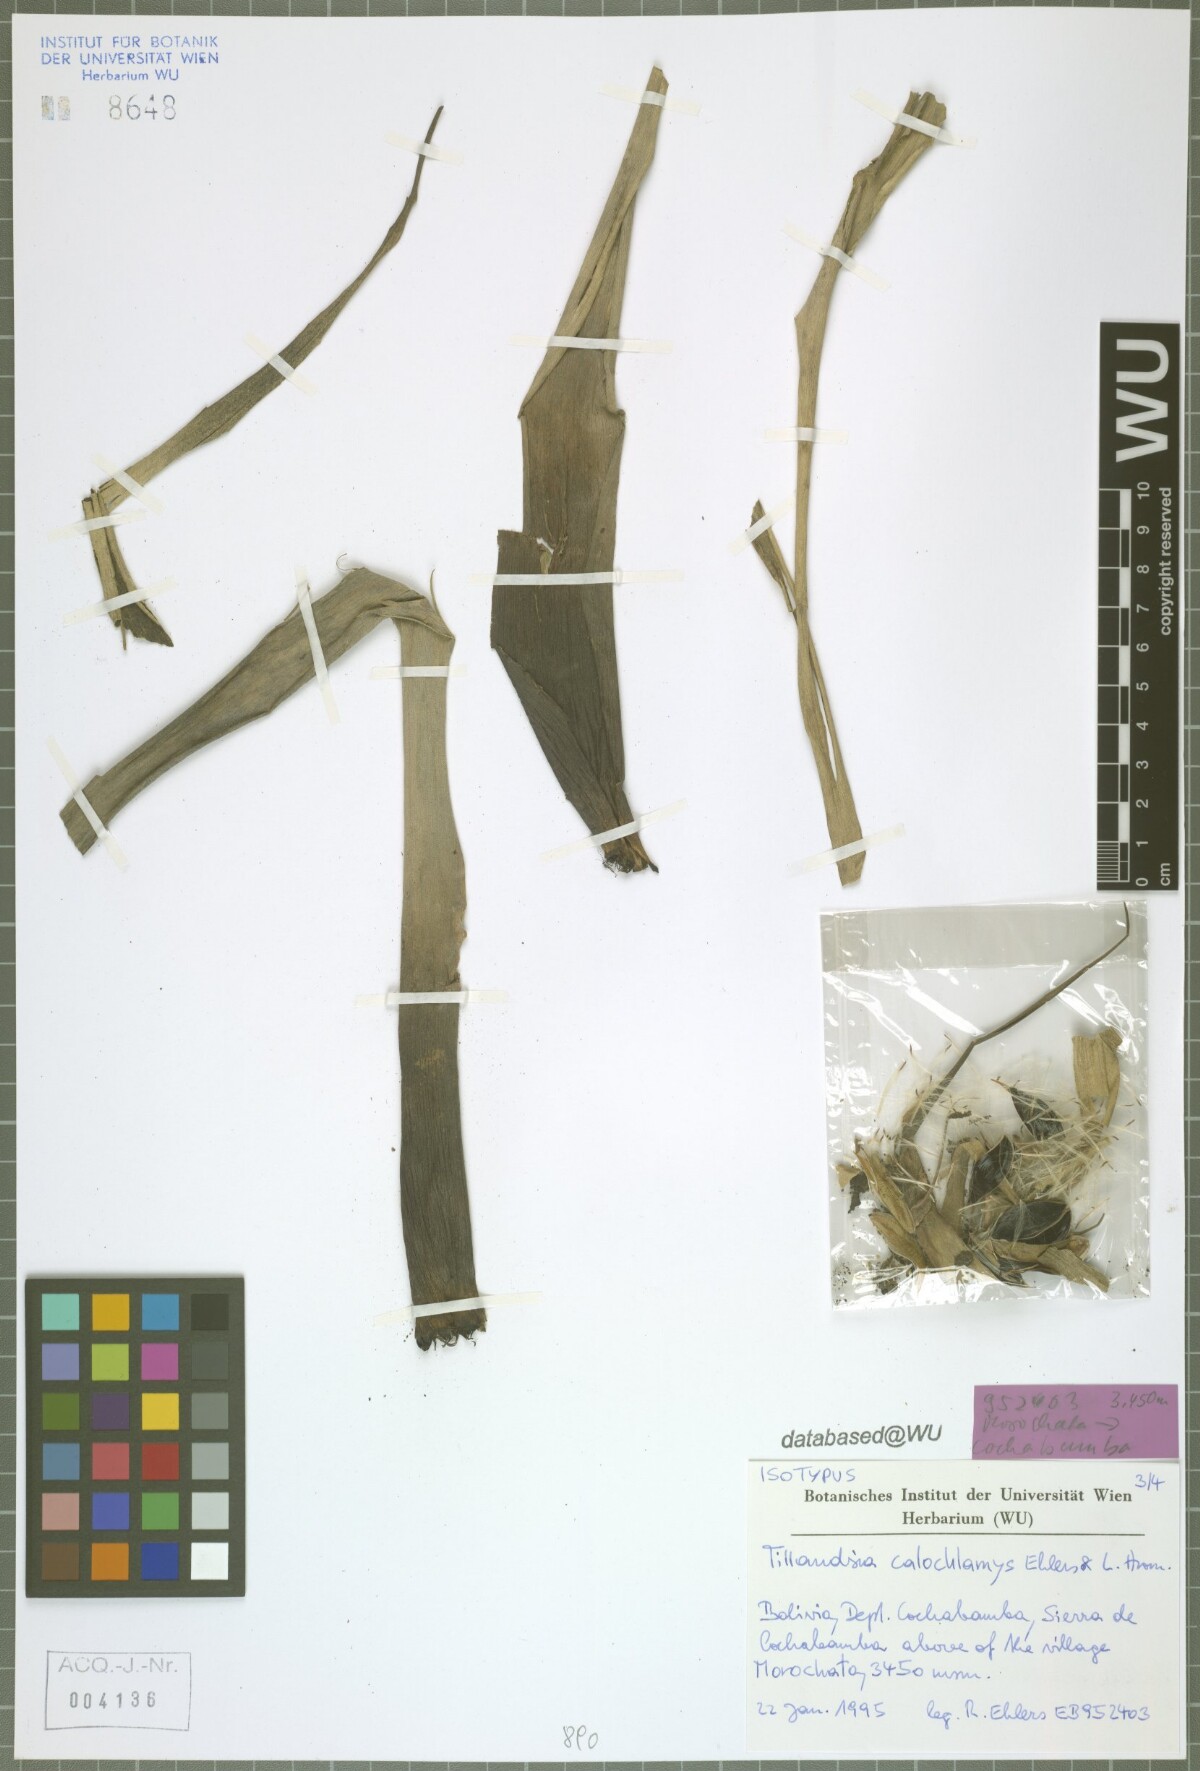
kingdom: Plantae
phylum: Tracheophyta
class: Liliopsida
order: Poales
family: Bromeliaceae
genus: Tillandsia
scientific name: Tillandsia calochlamys
